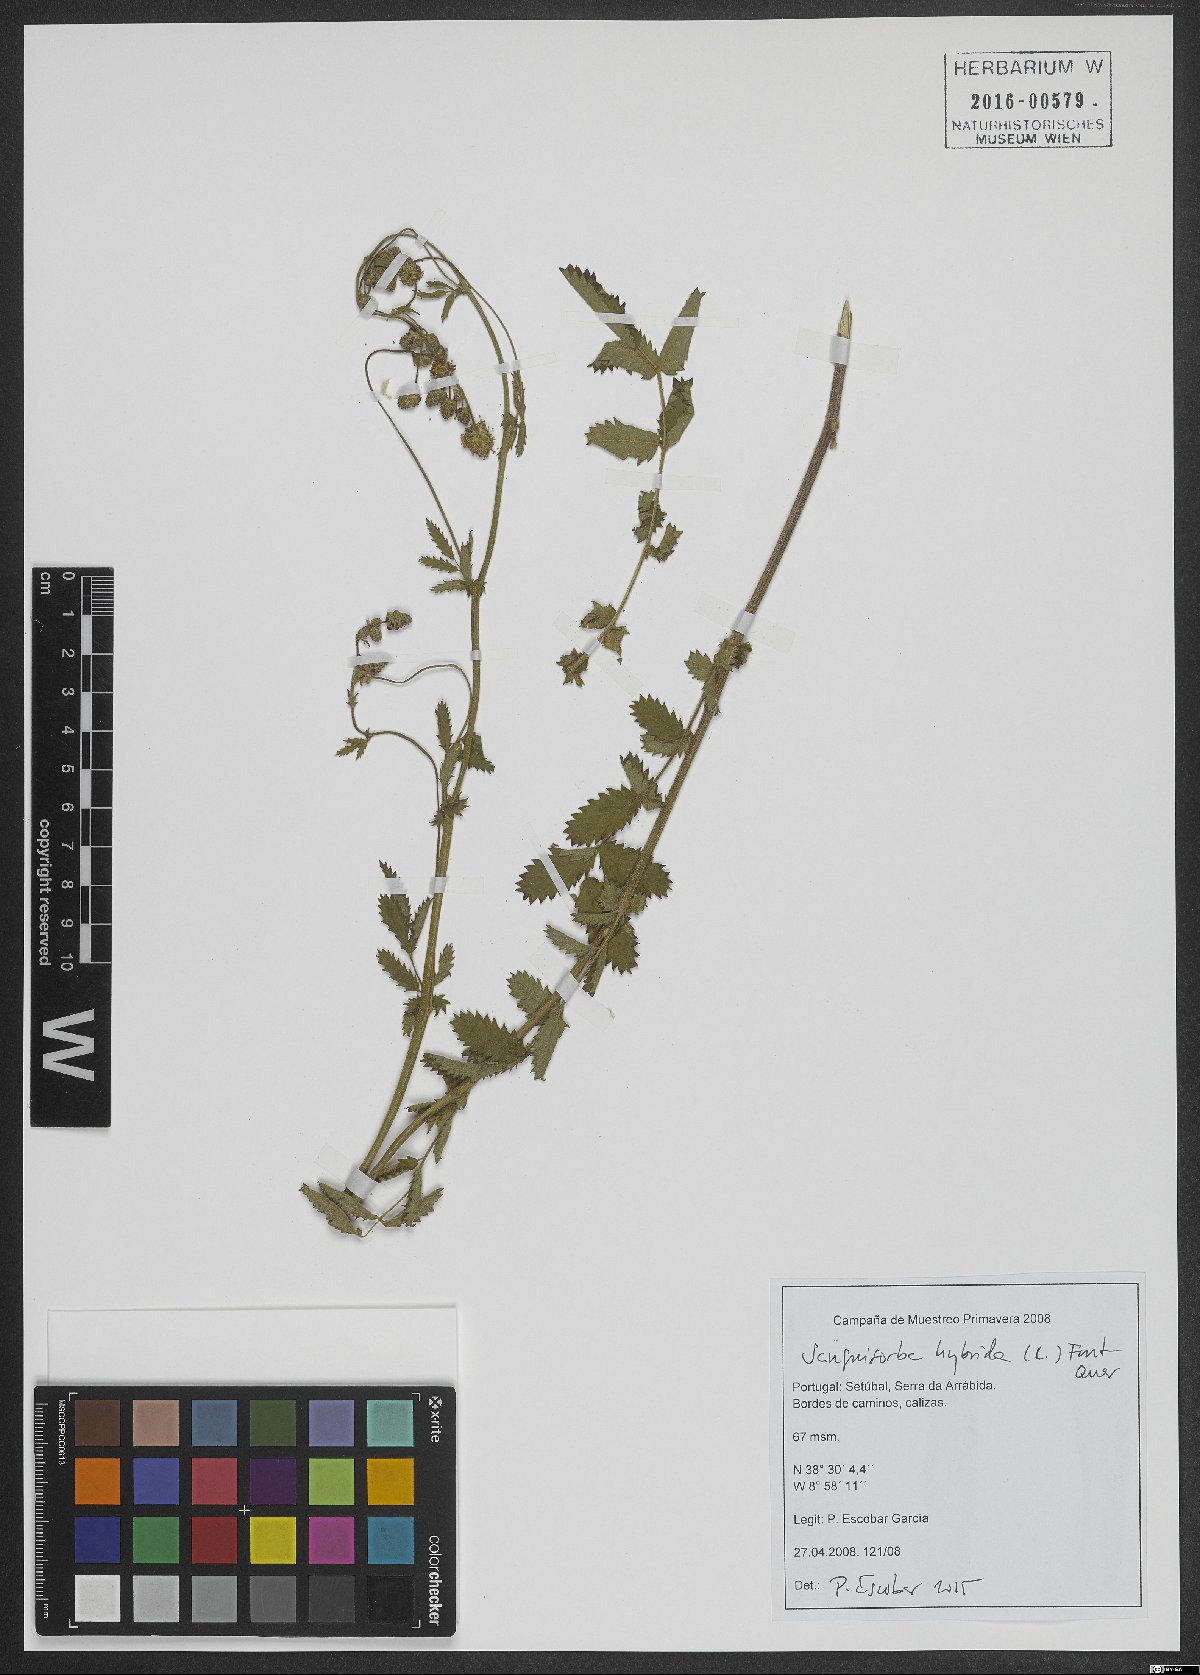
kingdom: Plantae
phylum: Tracheophyta
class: Magnoliopsida
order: Rosales
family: Rosaceae
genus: Poterium
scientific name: Poterium hybridum
